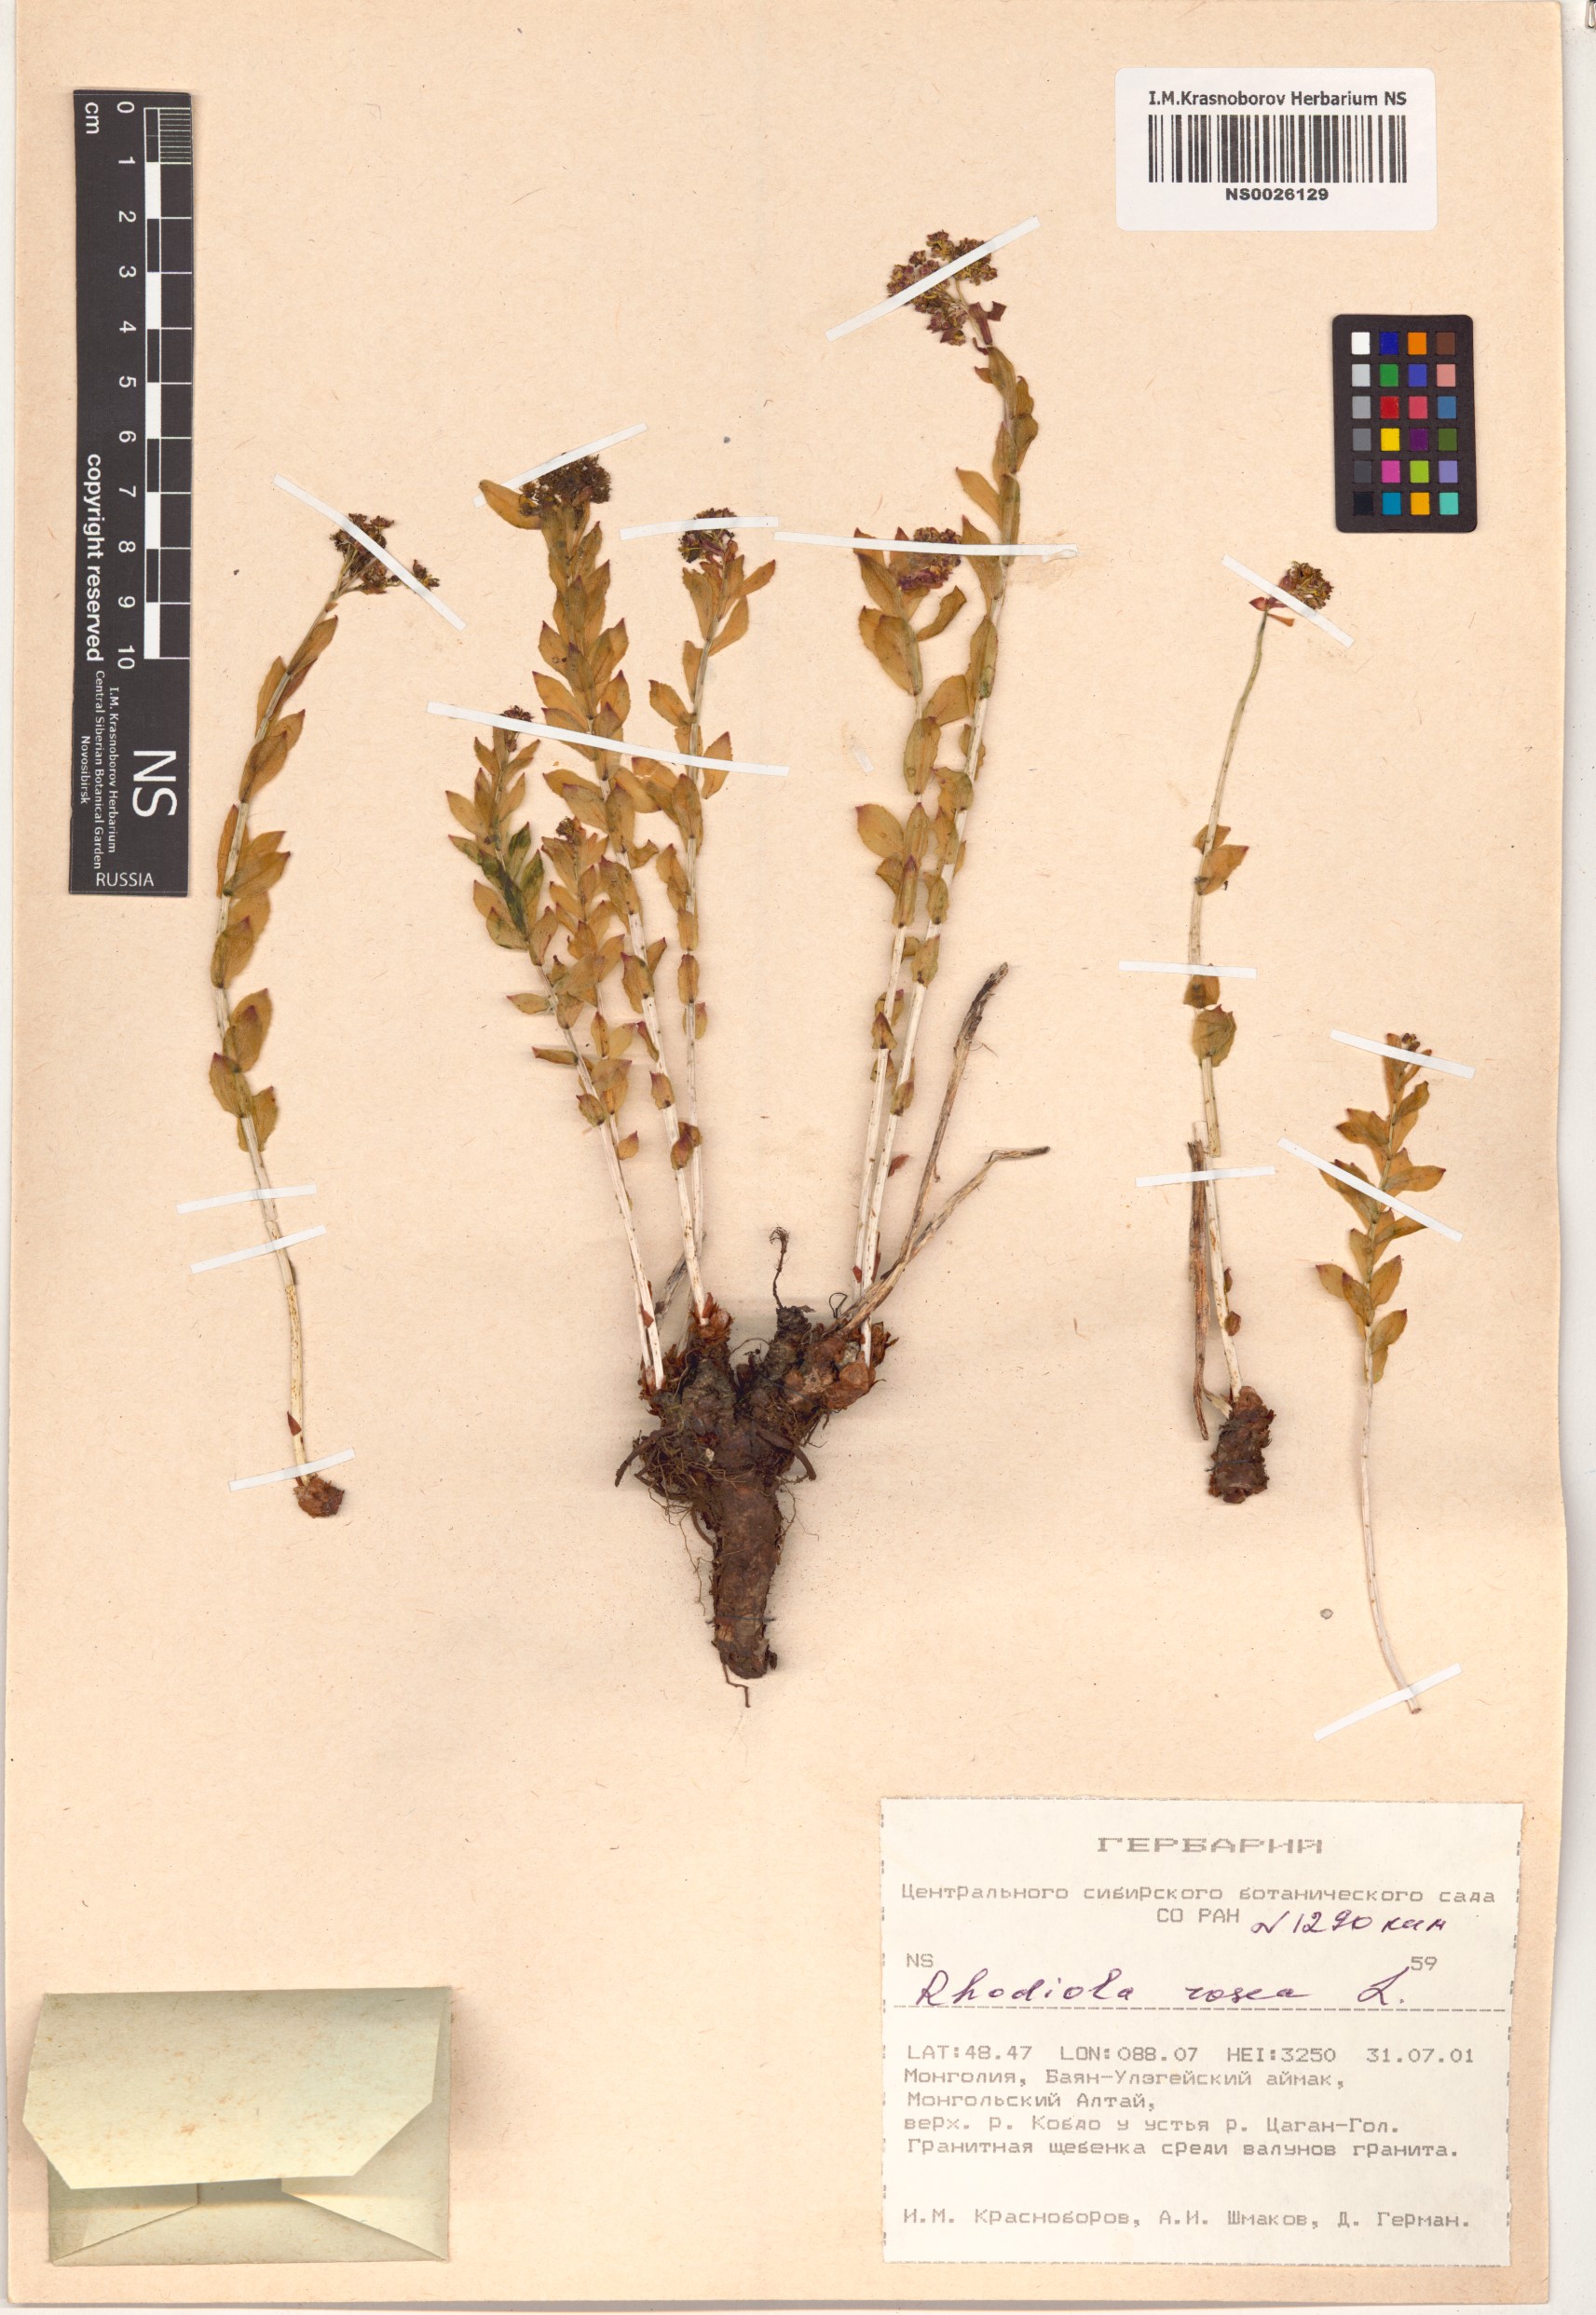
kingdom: Plantae
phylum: Tracheophyta
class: Magnoliopsida
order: Saxifragales
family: Crassulaceae
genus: Rhodiola
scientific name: Rhodiola rosea
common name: Roseroot
